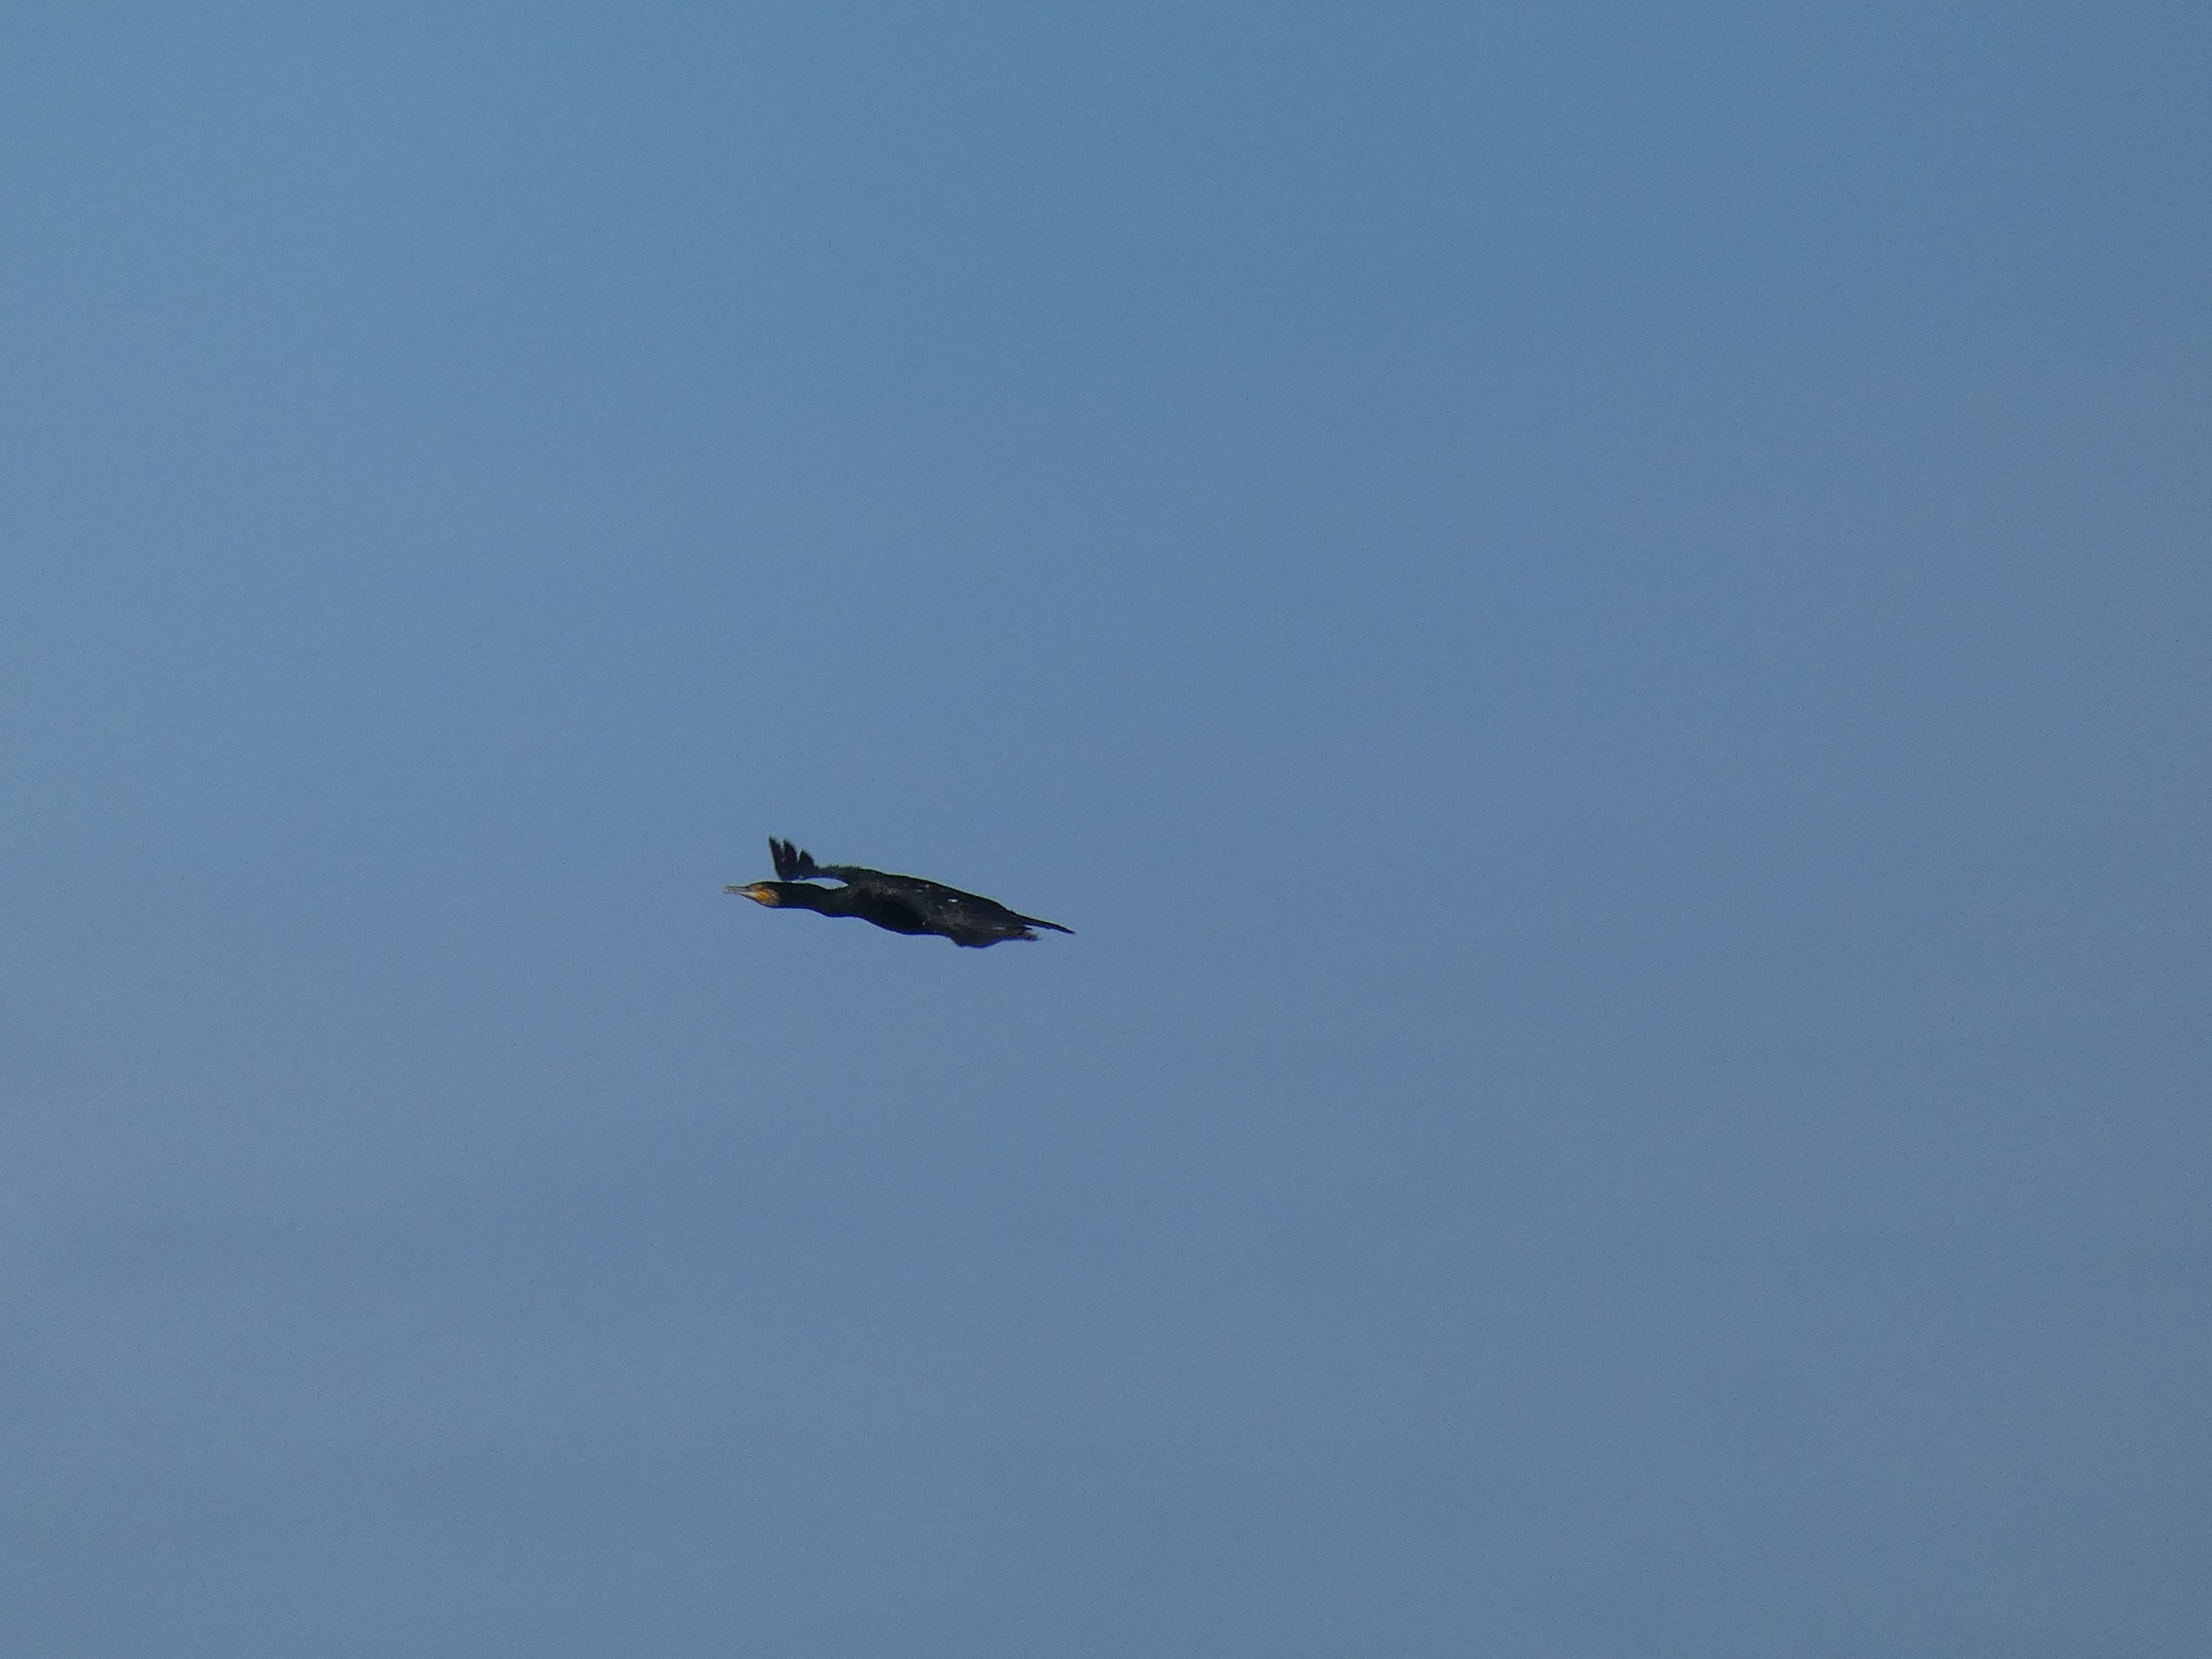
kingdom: Animalia
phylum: Chordata
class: Aves
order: Suliformes
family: Phalacrocoracidae
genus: Phalacrocorax
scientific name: Phalacrocorax carbo
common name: Skarv
